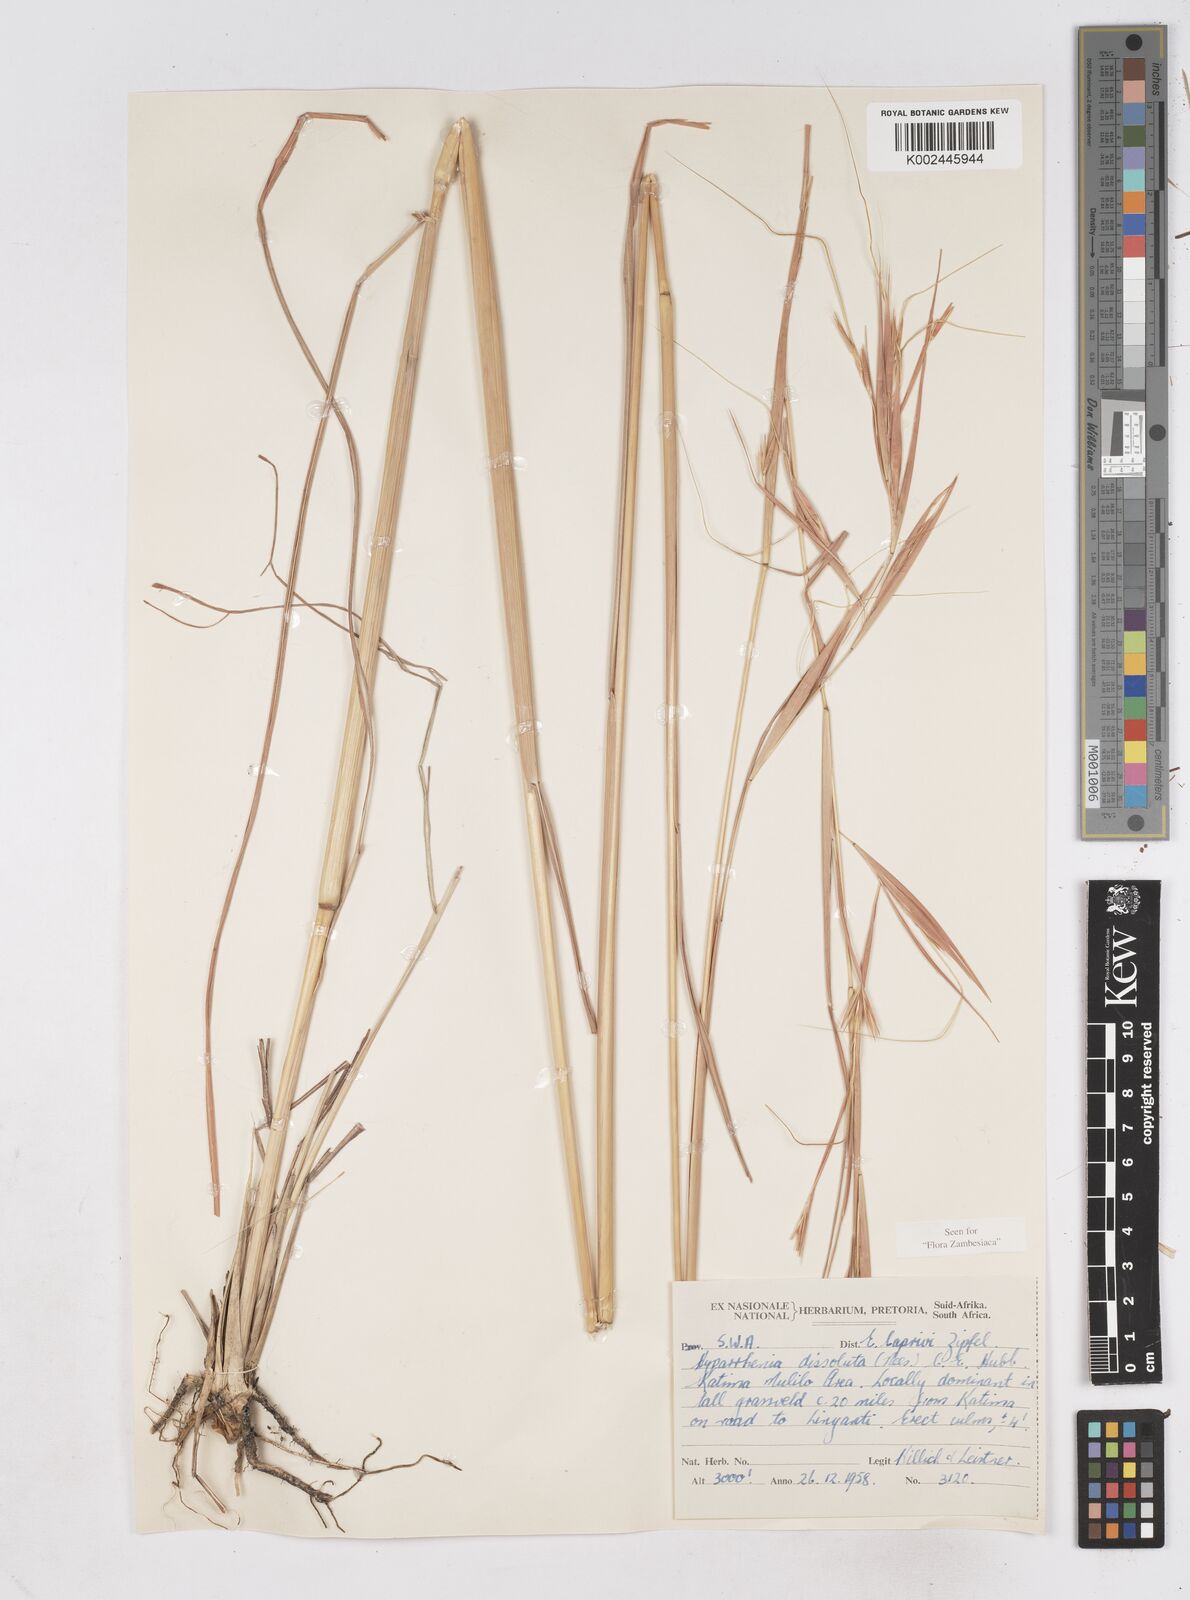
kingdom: Plantae
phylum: Tracheophyta
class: Liliopsida
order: Poales
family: Poaceae
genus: Hyperthelia
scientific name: Hyperthelia dissoluta
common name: Yellow thatching grass
